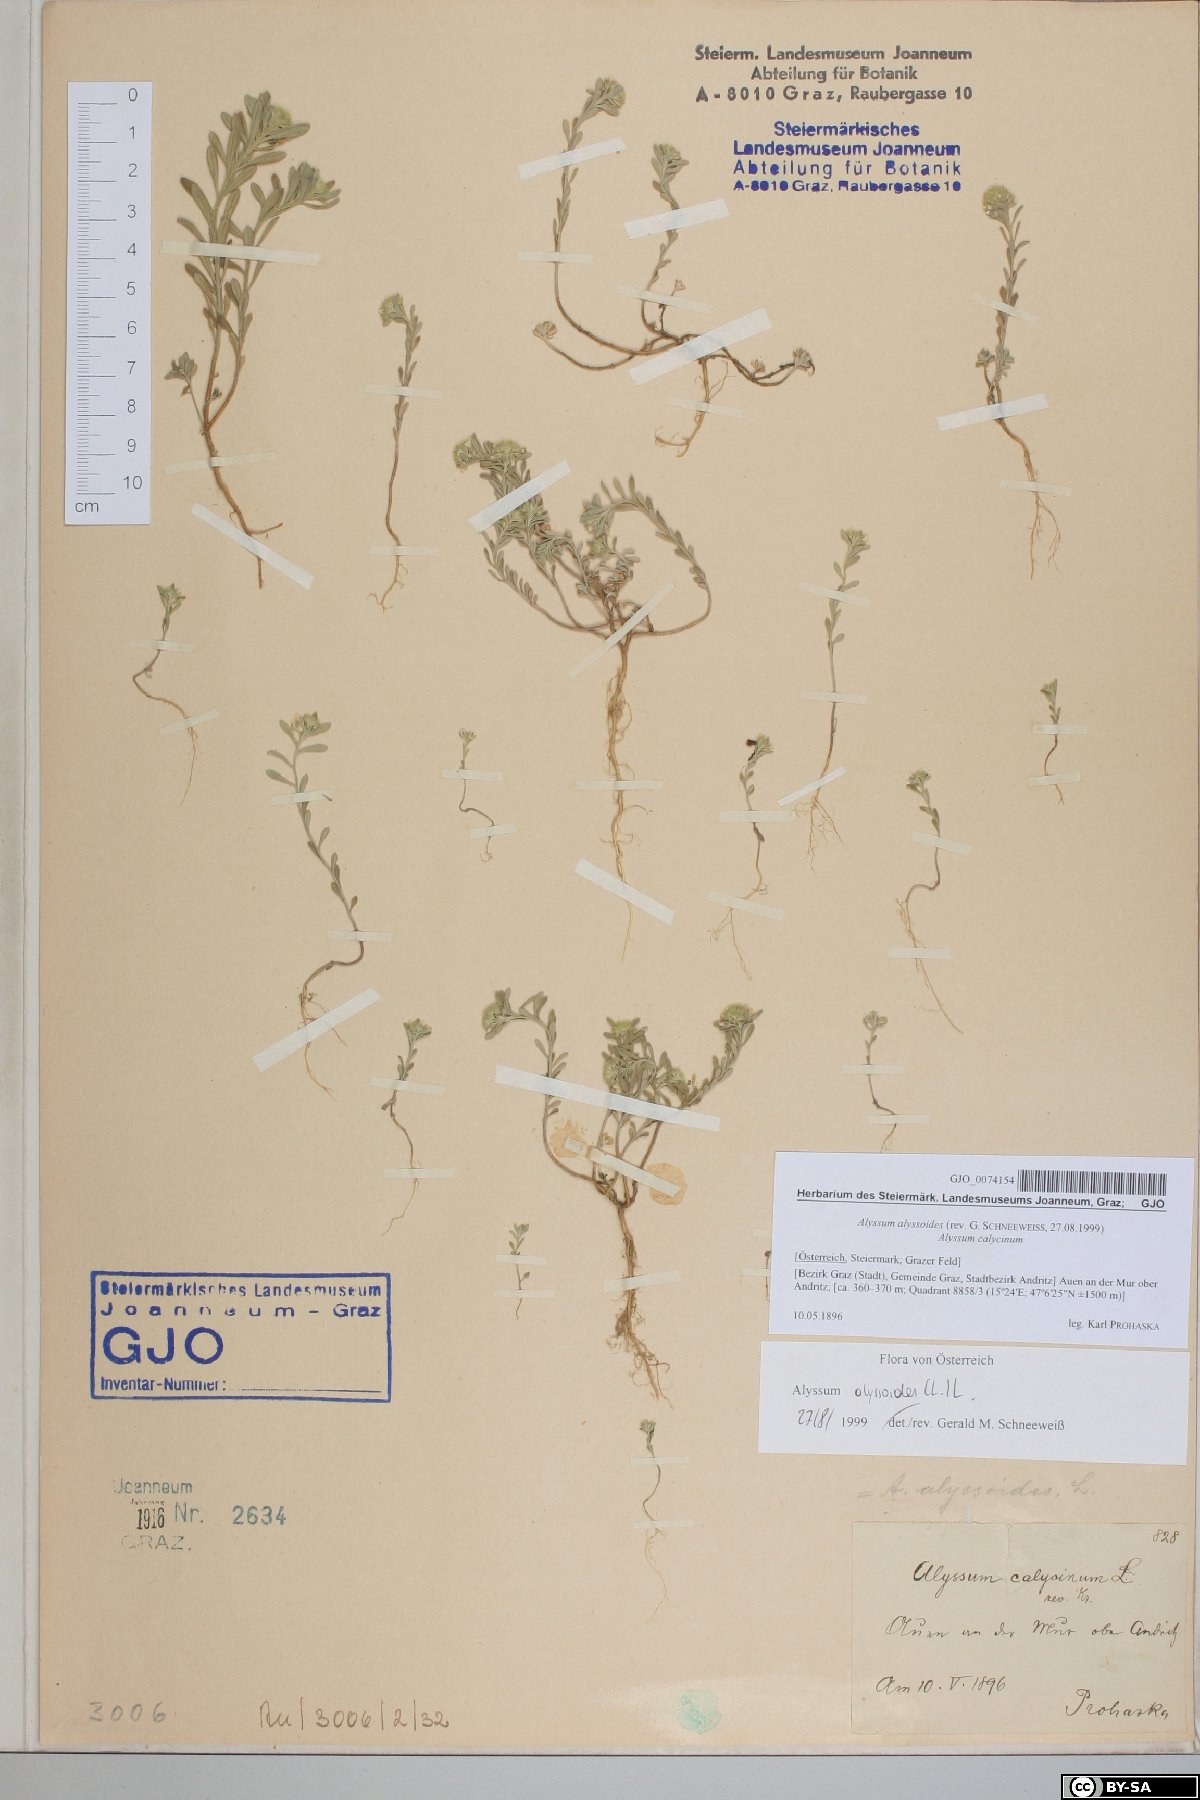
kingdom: Plantae
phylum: Tracheophyta
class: Magnoliopsida
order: Brassicales
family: Brassicaceae
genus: Alyssum
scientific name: Alyssum alyssoides
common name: Small alison
